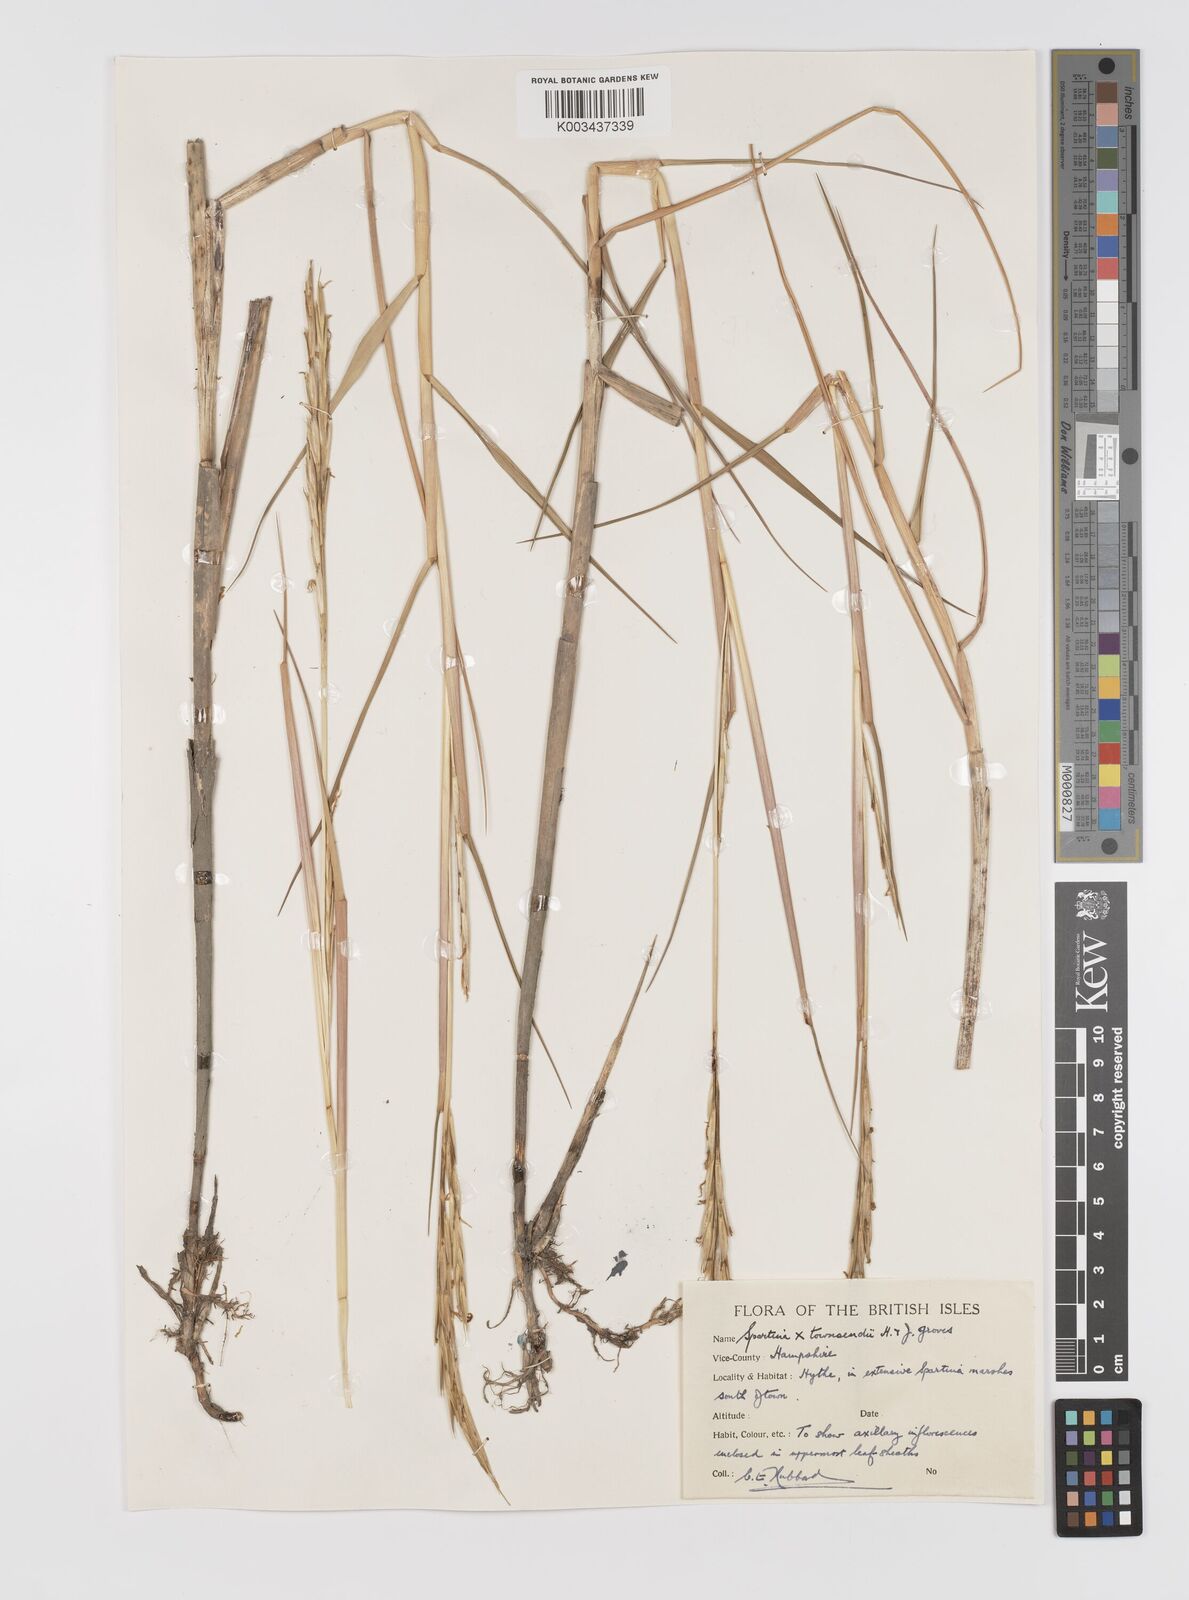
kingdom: Plantae
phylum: Tracheophyta
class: Liliopsida
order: Poales
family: Poaceae
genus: Sporobolus
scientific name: Sporobolus townsendii
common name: Townsend's cordgrass
